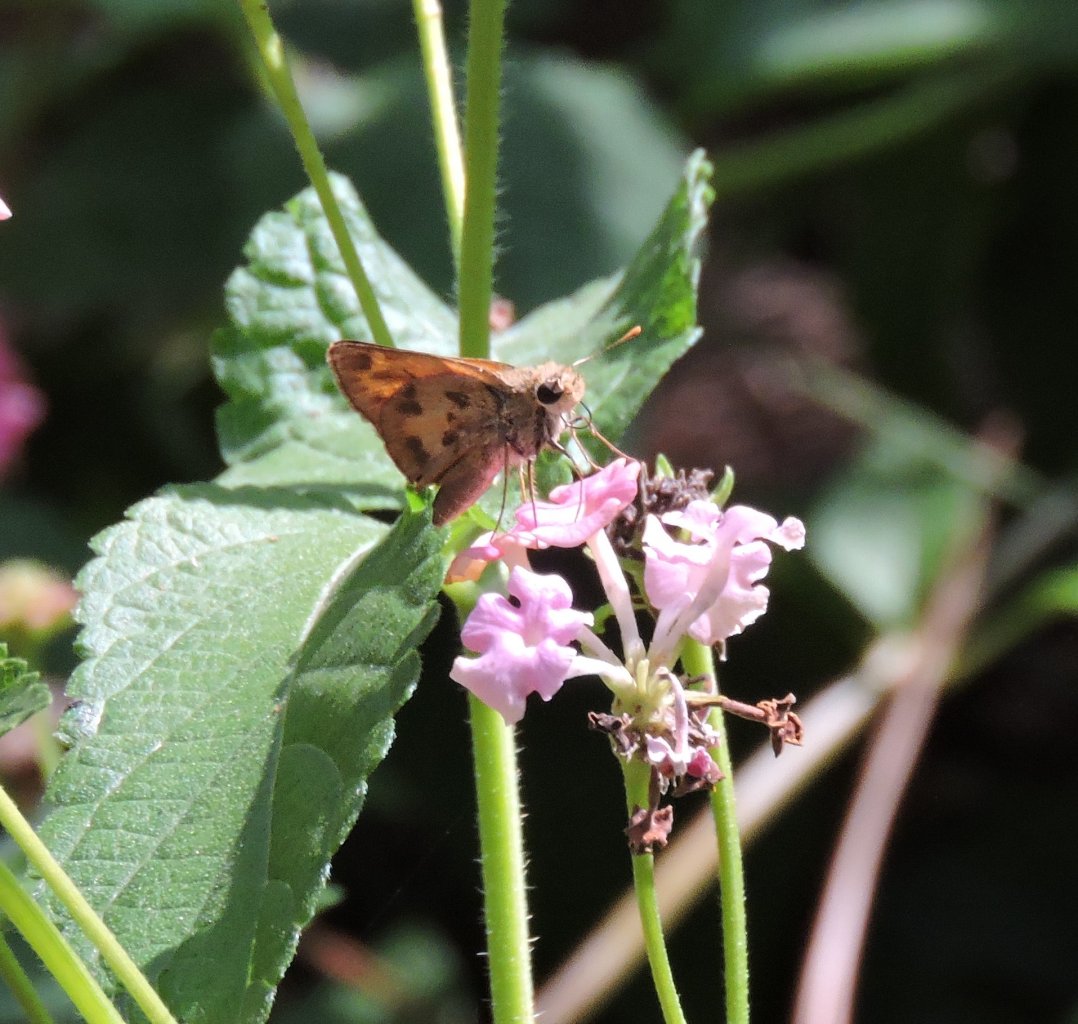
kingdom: Animalia
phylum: Arthropoda
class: Insecta
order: Lepidoptera
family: Hesperiidae
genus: Polites
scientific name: Polites vibex
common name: Whirlabout
